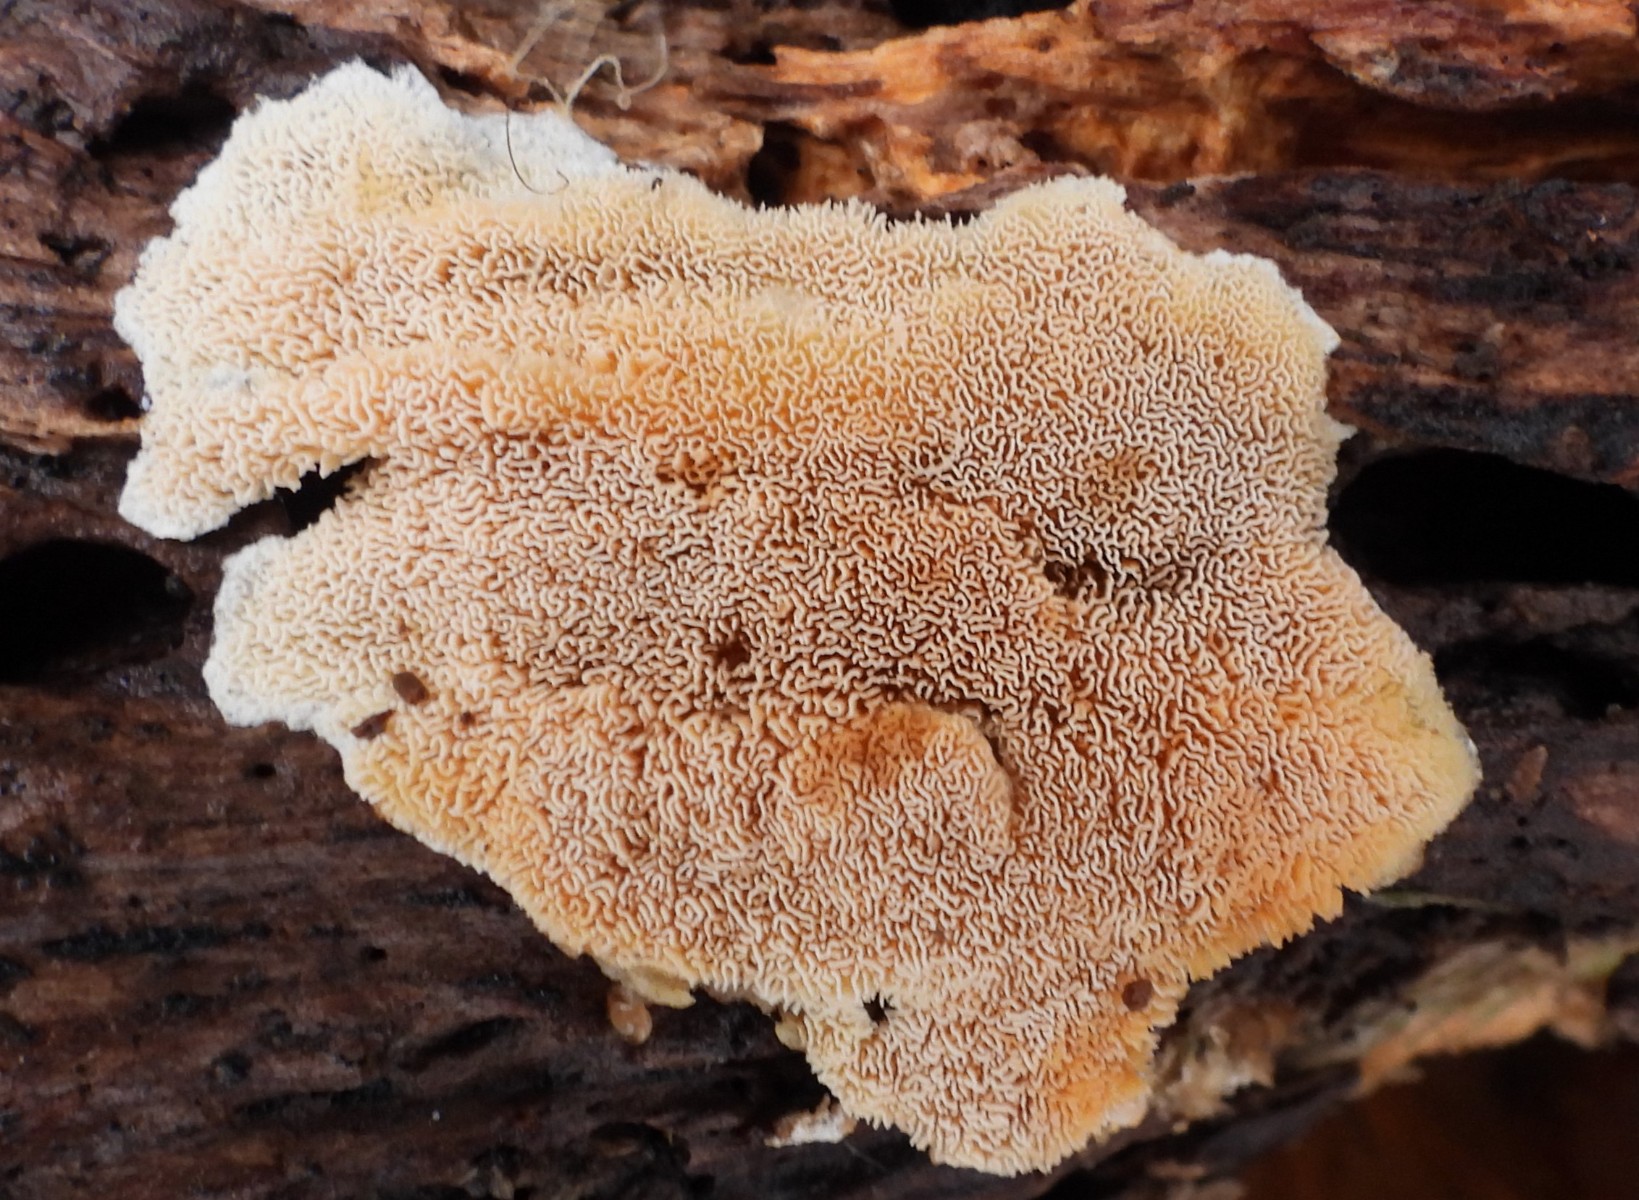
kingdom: Fungi
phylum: Basidiomycota
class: Agaricomycetes
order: Hymenochaetales
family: Schizoporaceae
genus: Xylodon
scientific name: Xylodon subtropicus
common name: labyrint-tandsvamp
